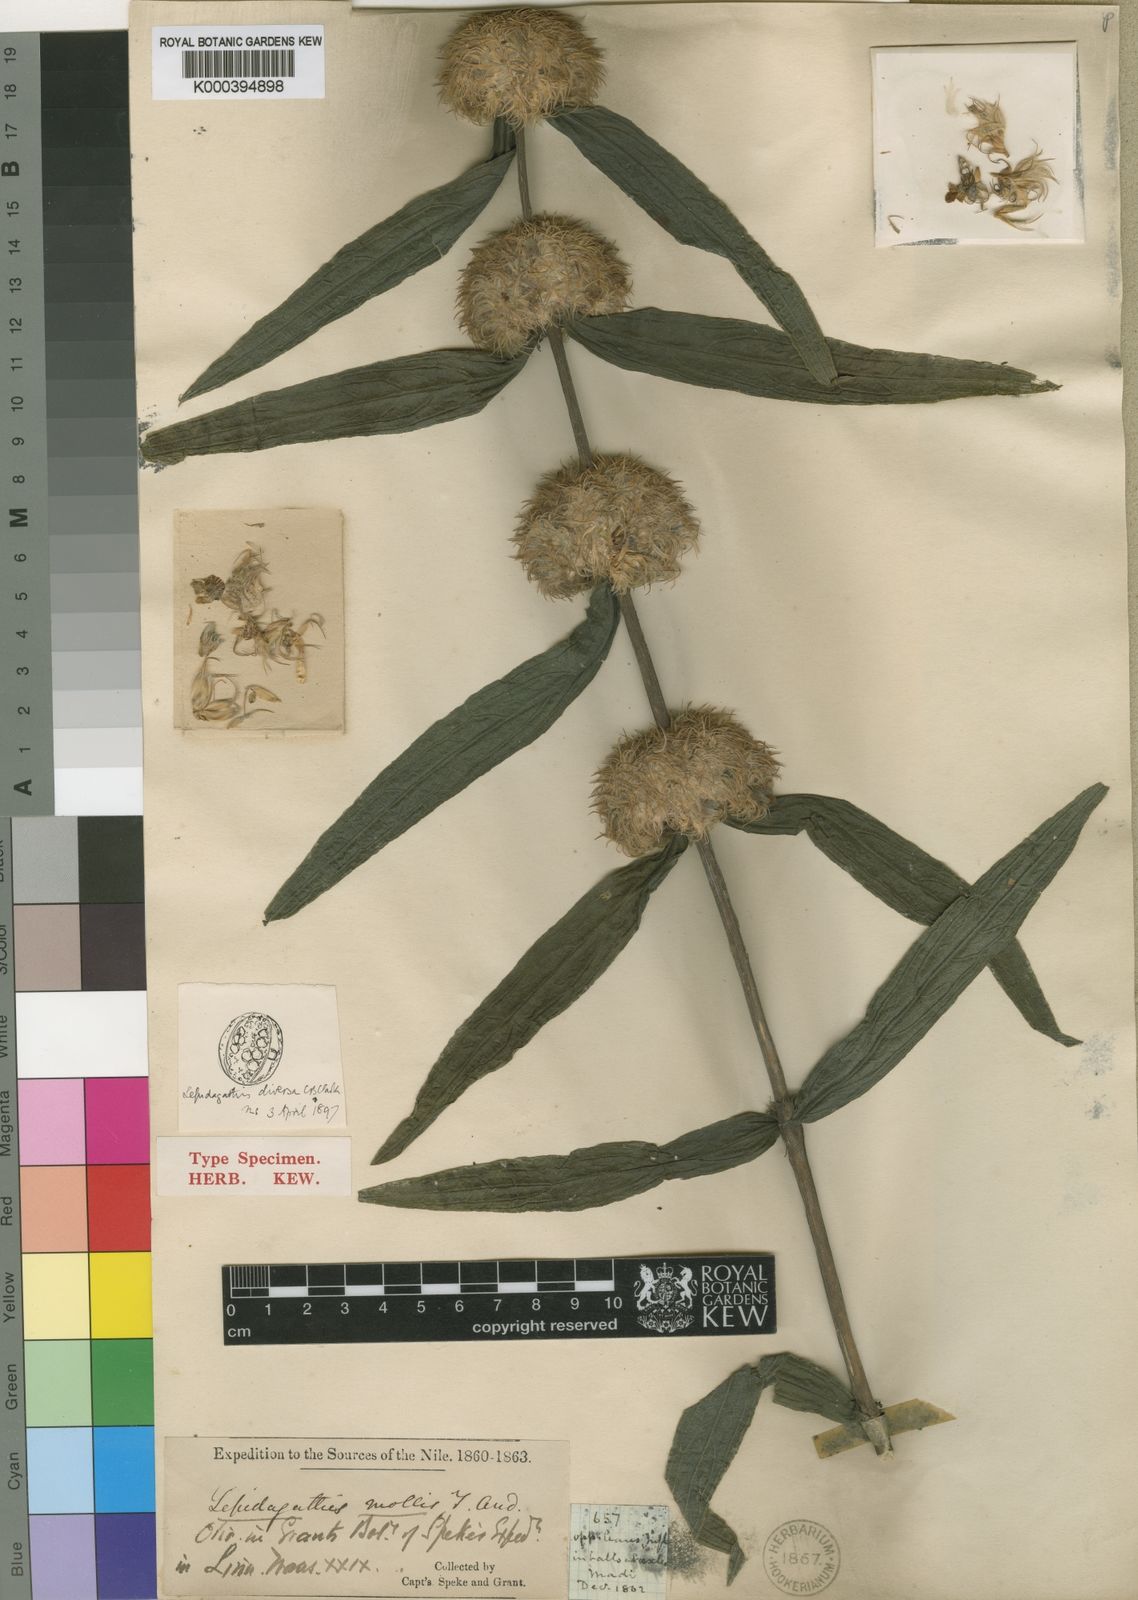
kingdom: Plantae
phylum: Tracheophyta
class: Magnoliopsida
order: Lamiales
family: Acanthaceae
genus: Lepidagathis
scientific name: Lepidagathis diversa
